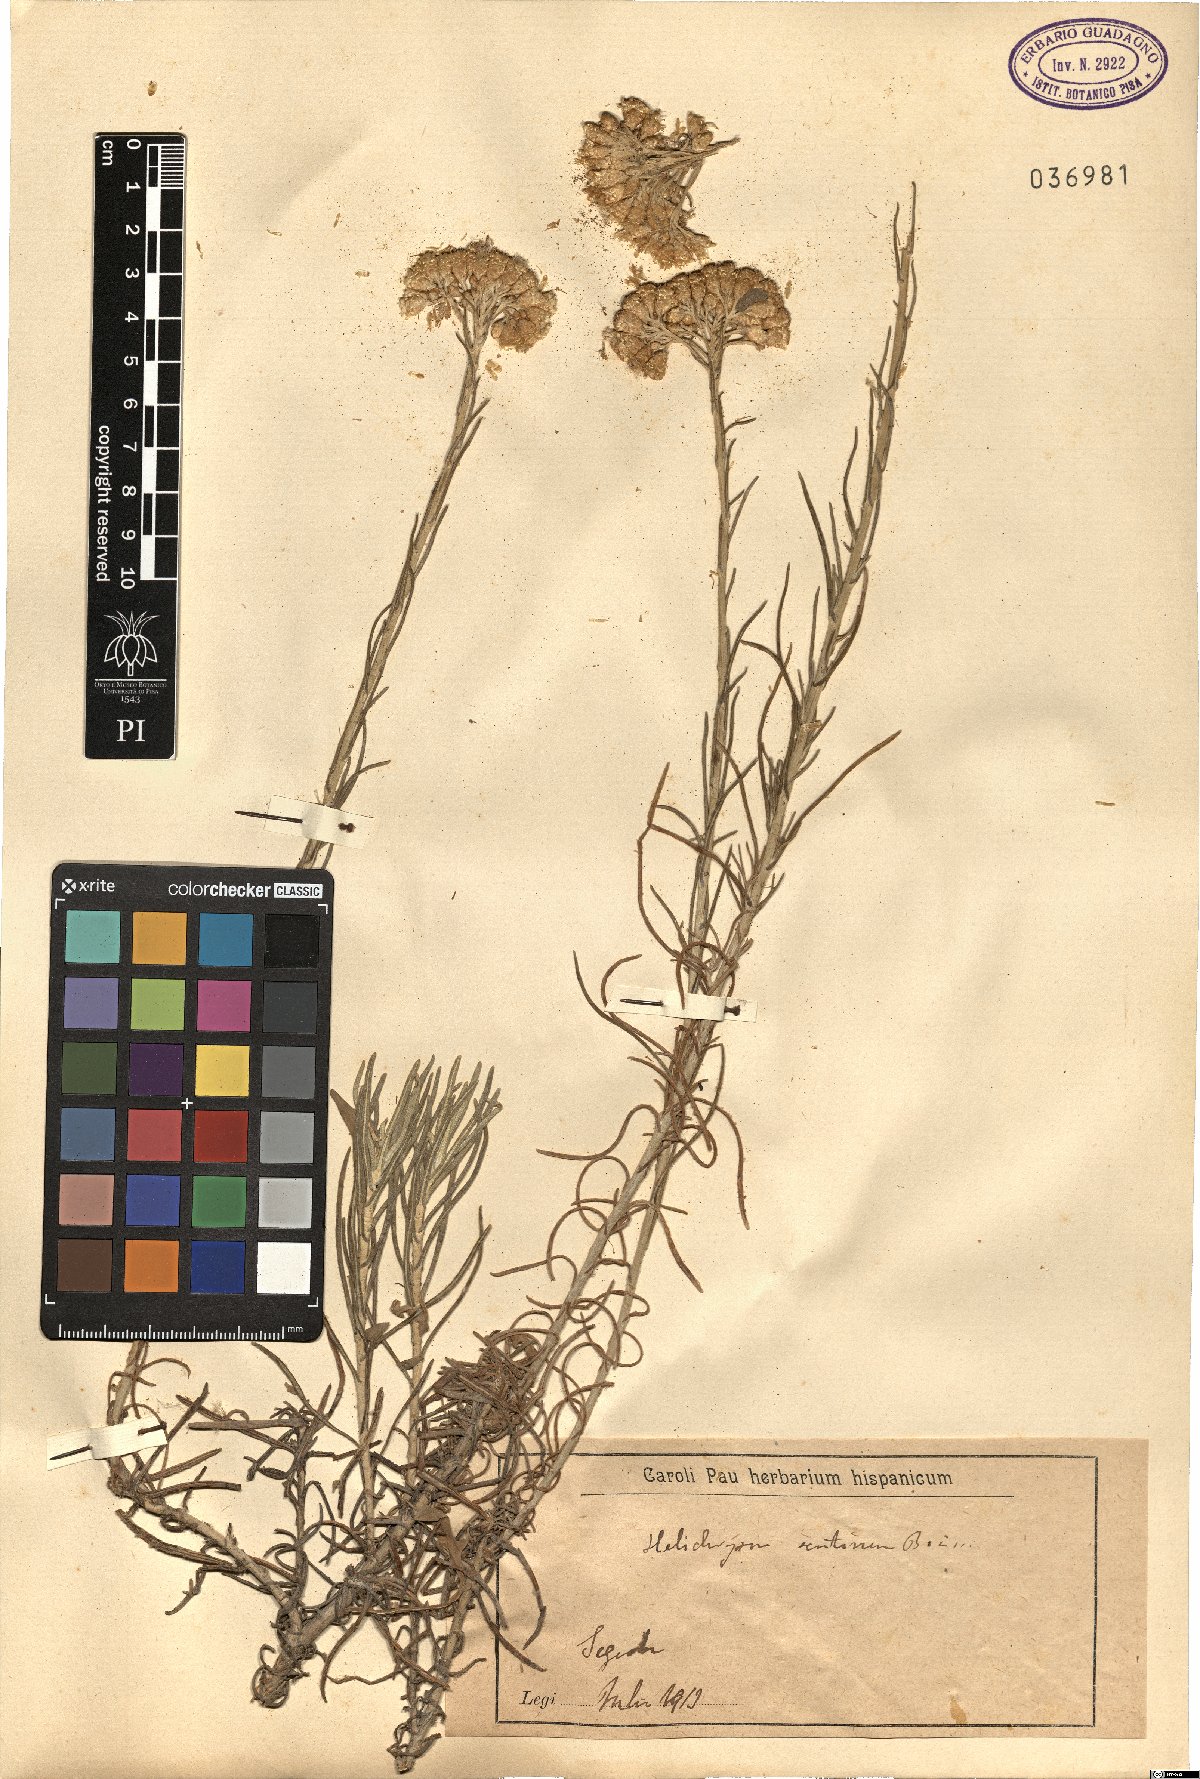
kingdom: Plantae
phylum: Tracheophyta
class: Magnoliopsida
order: Asterales
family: Asteraceae
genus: Helichrysum
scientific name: Helichrysum serotinum
